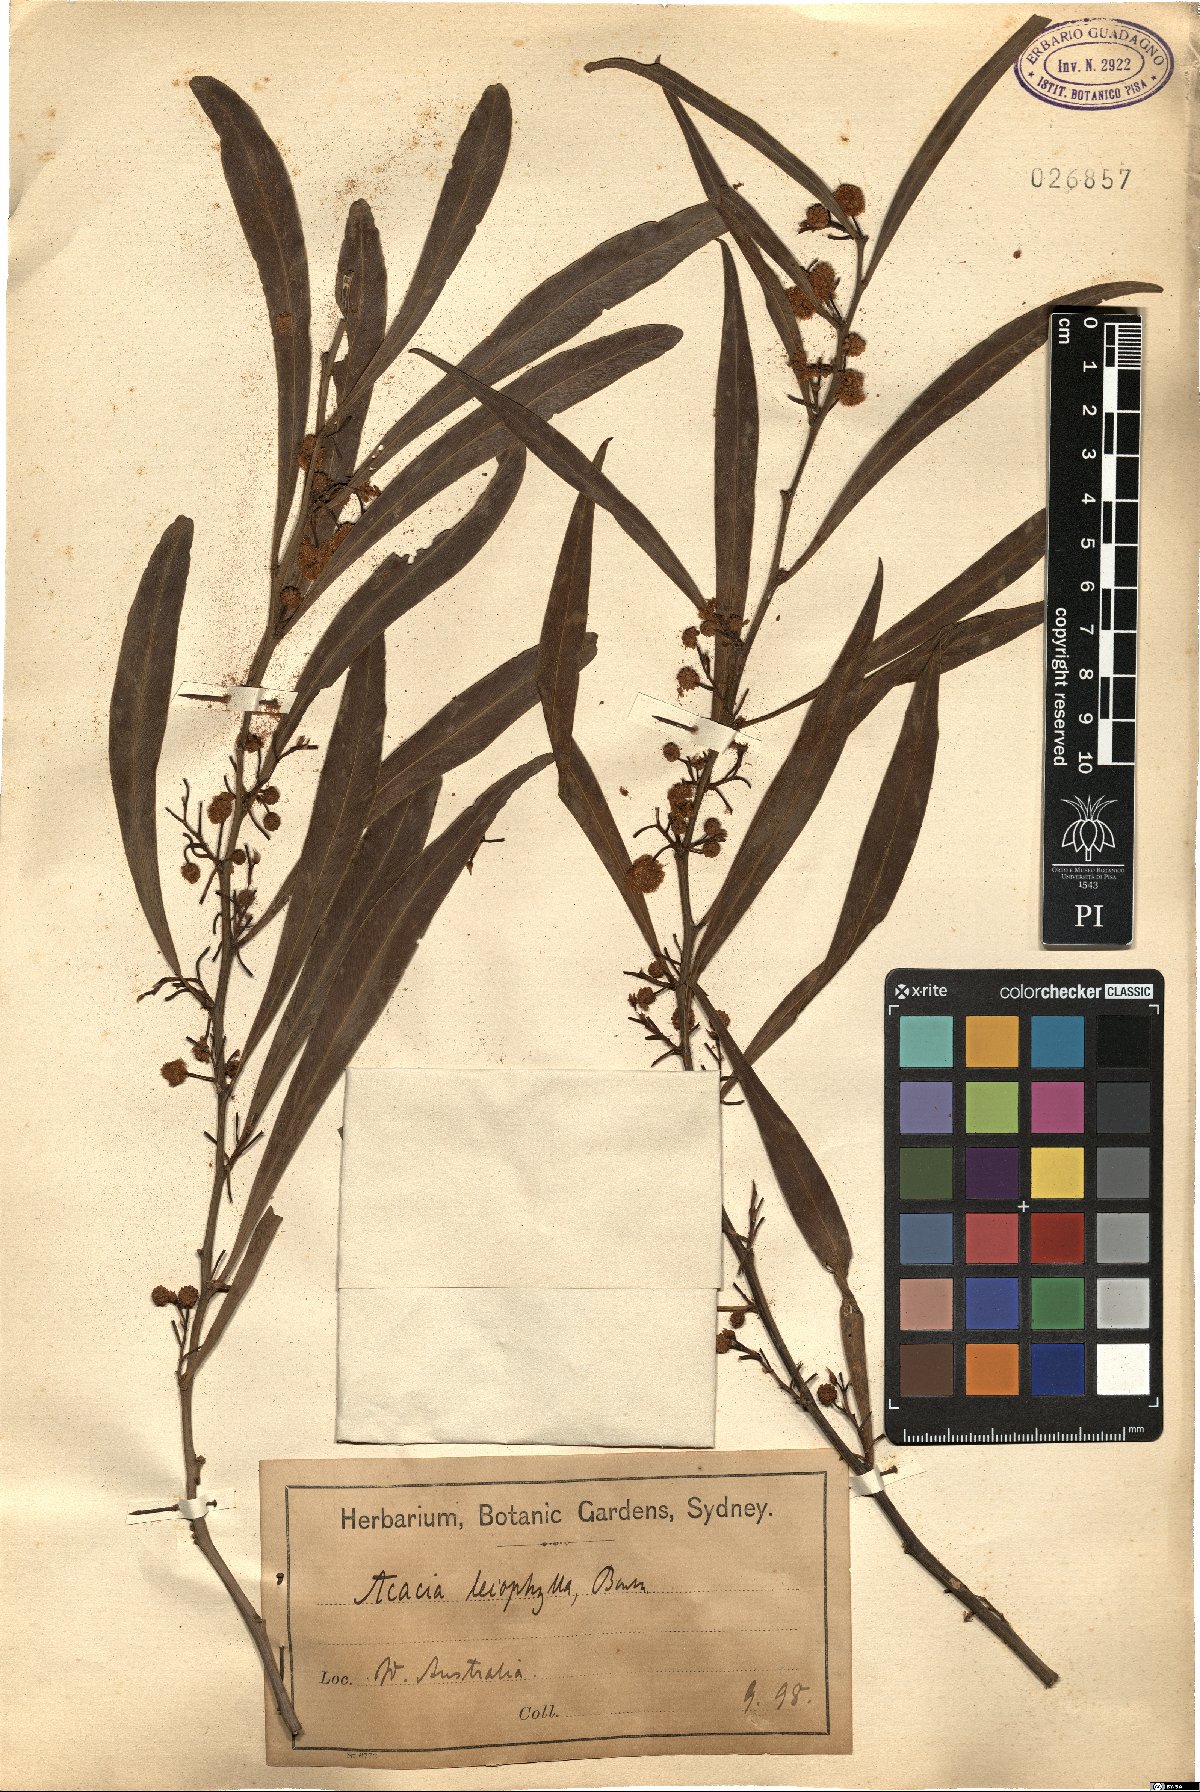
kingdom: Plantae
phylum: Tracheophyta
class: Magnoliopsida
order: Fabales
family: Fabaceae
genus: Acacia
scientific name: Acacia leiophylla
